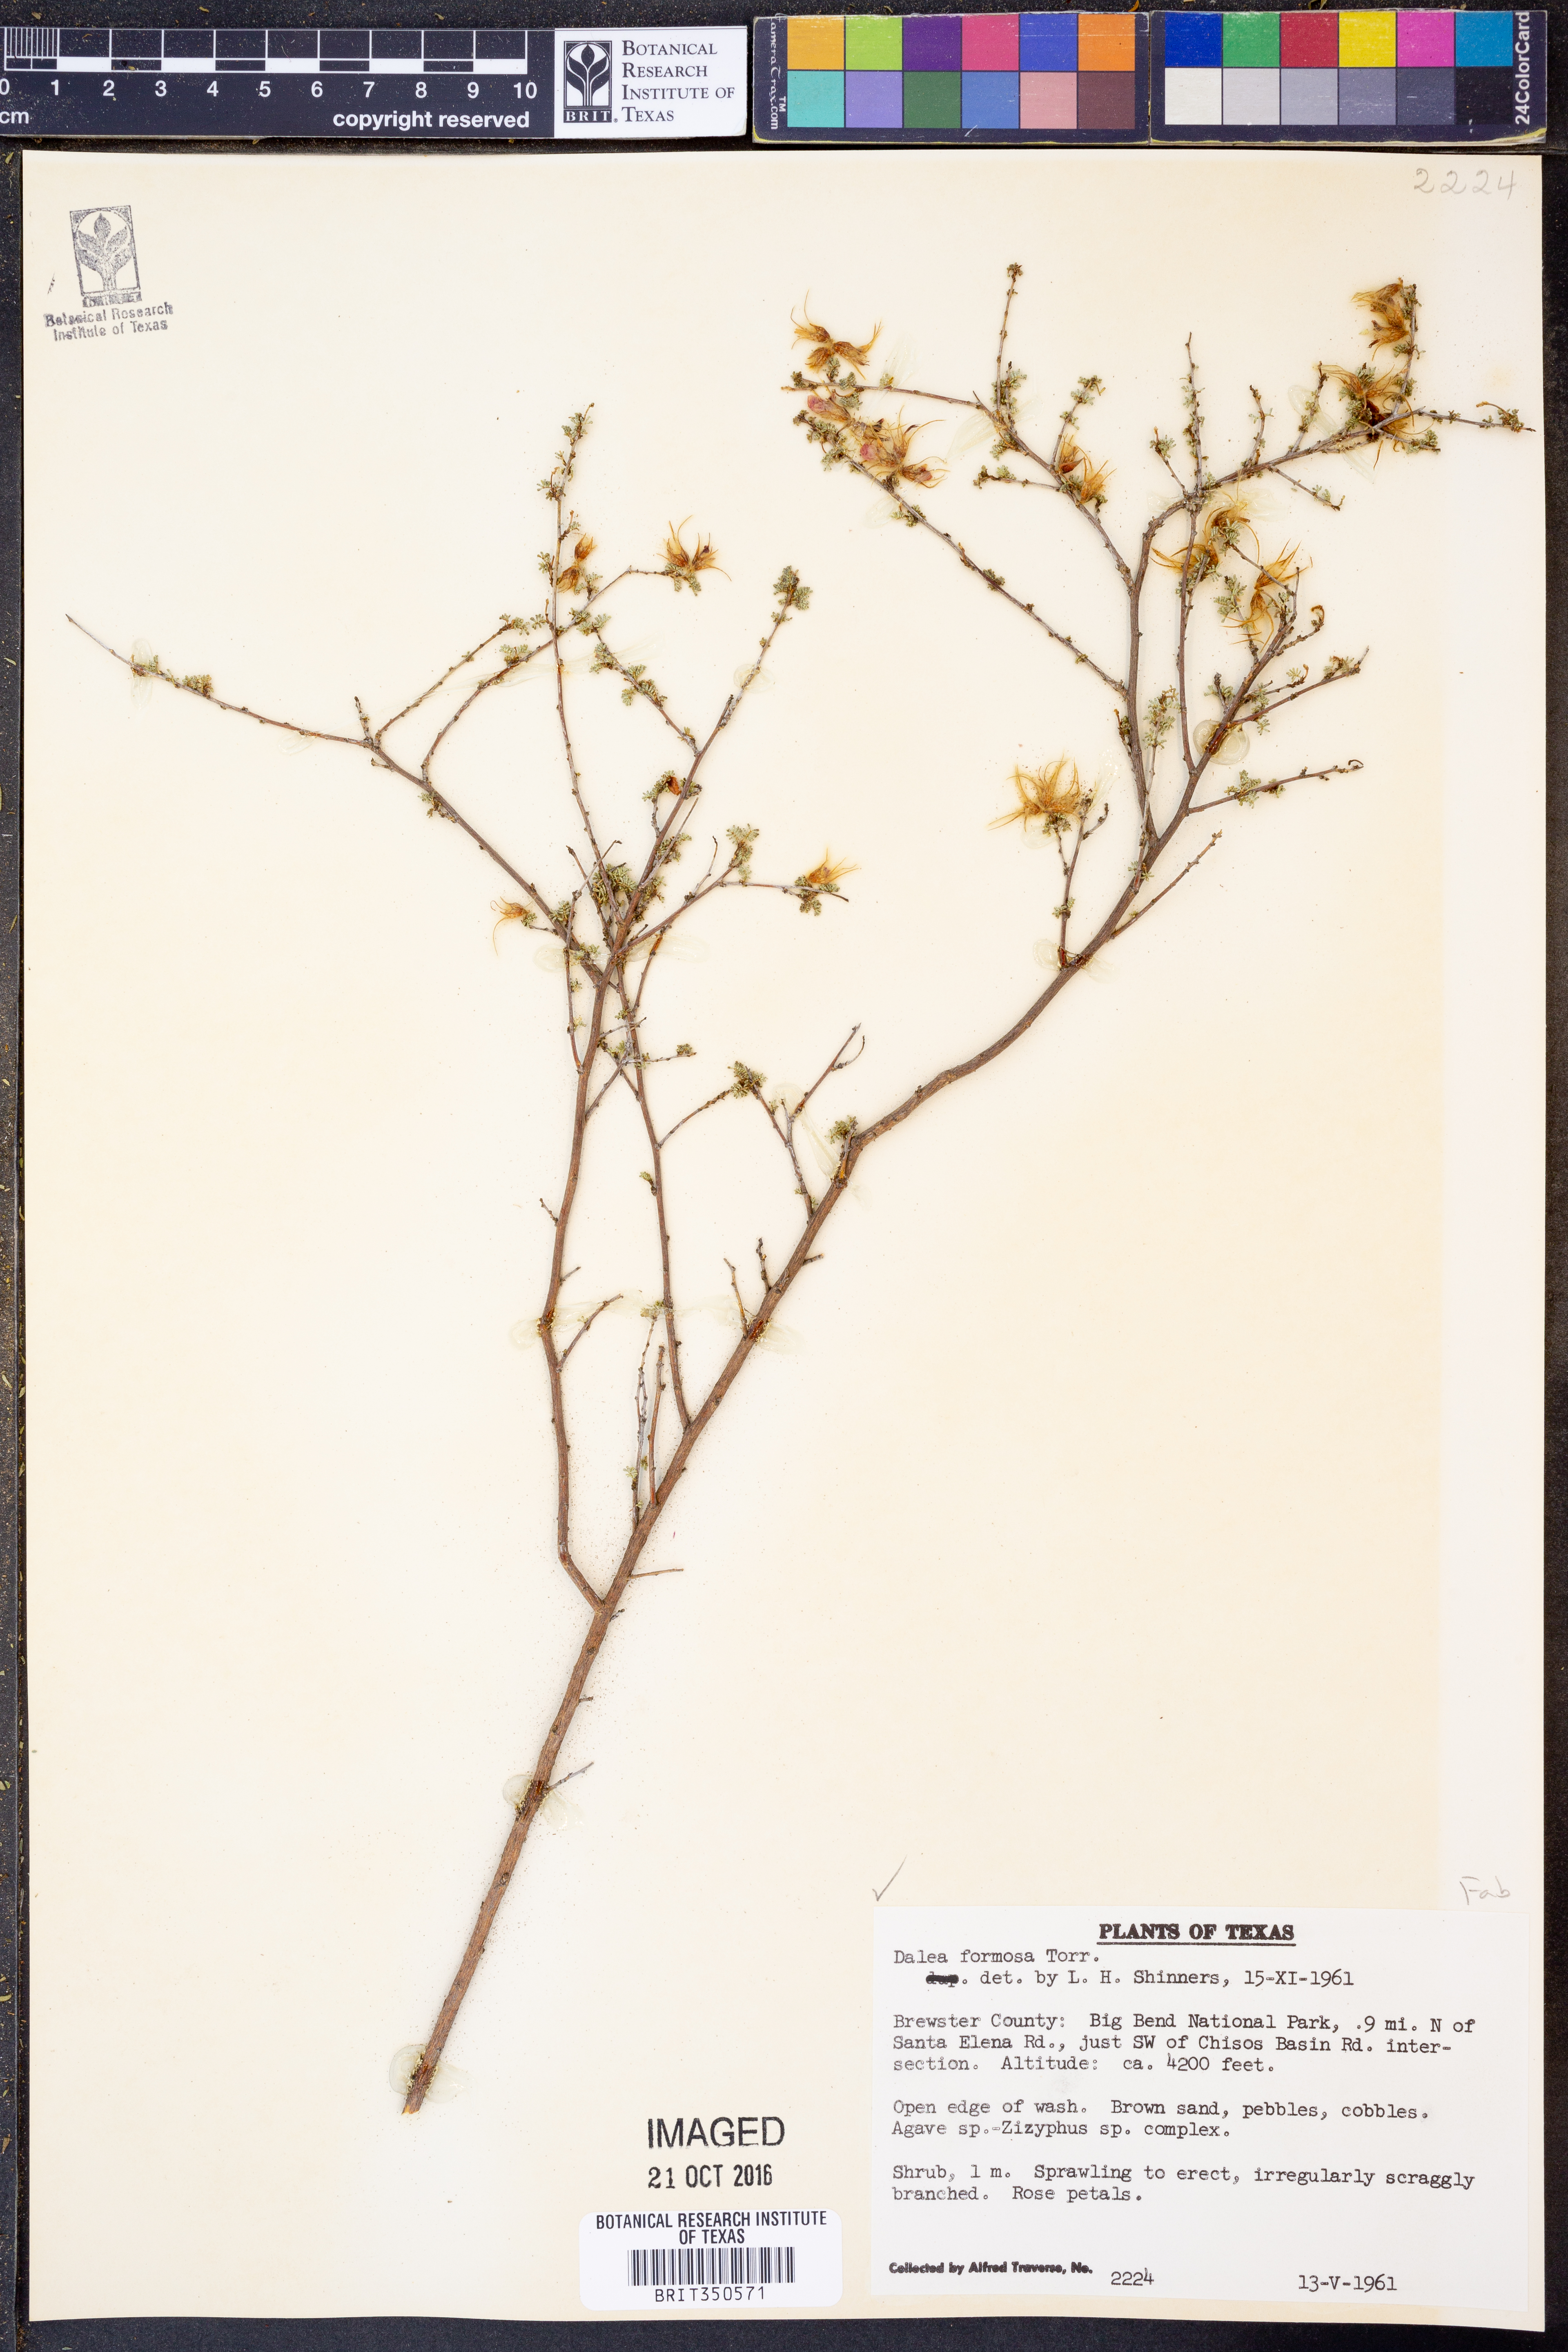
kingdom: Plantae
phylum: Tracheophyta
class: Magnoliopsida
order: Fabales
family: Fabaceae
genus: Dalea
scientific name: Dalea formosa
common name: Feather-plume dalea
